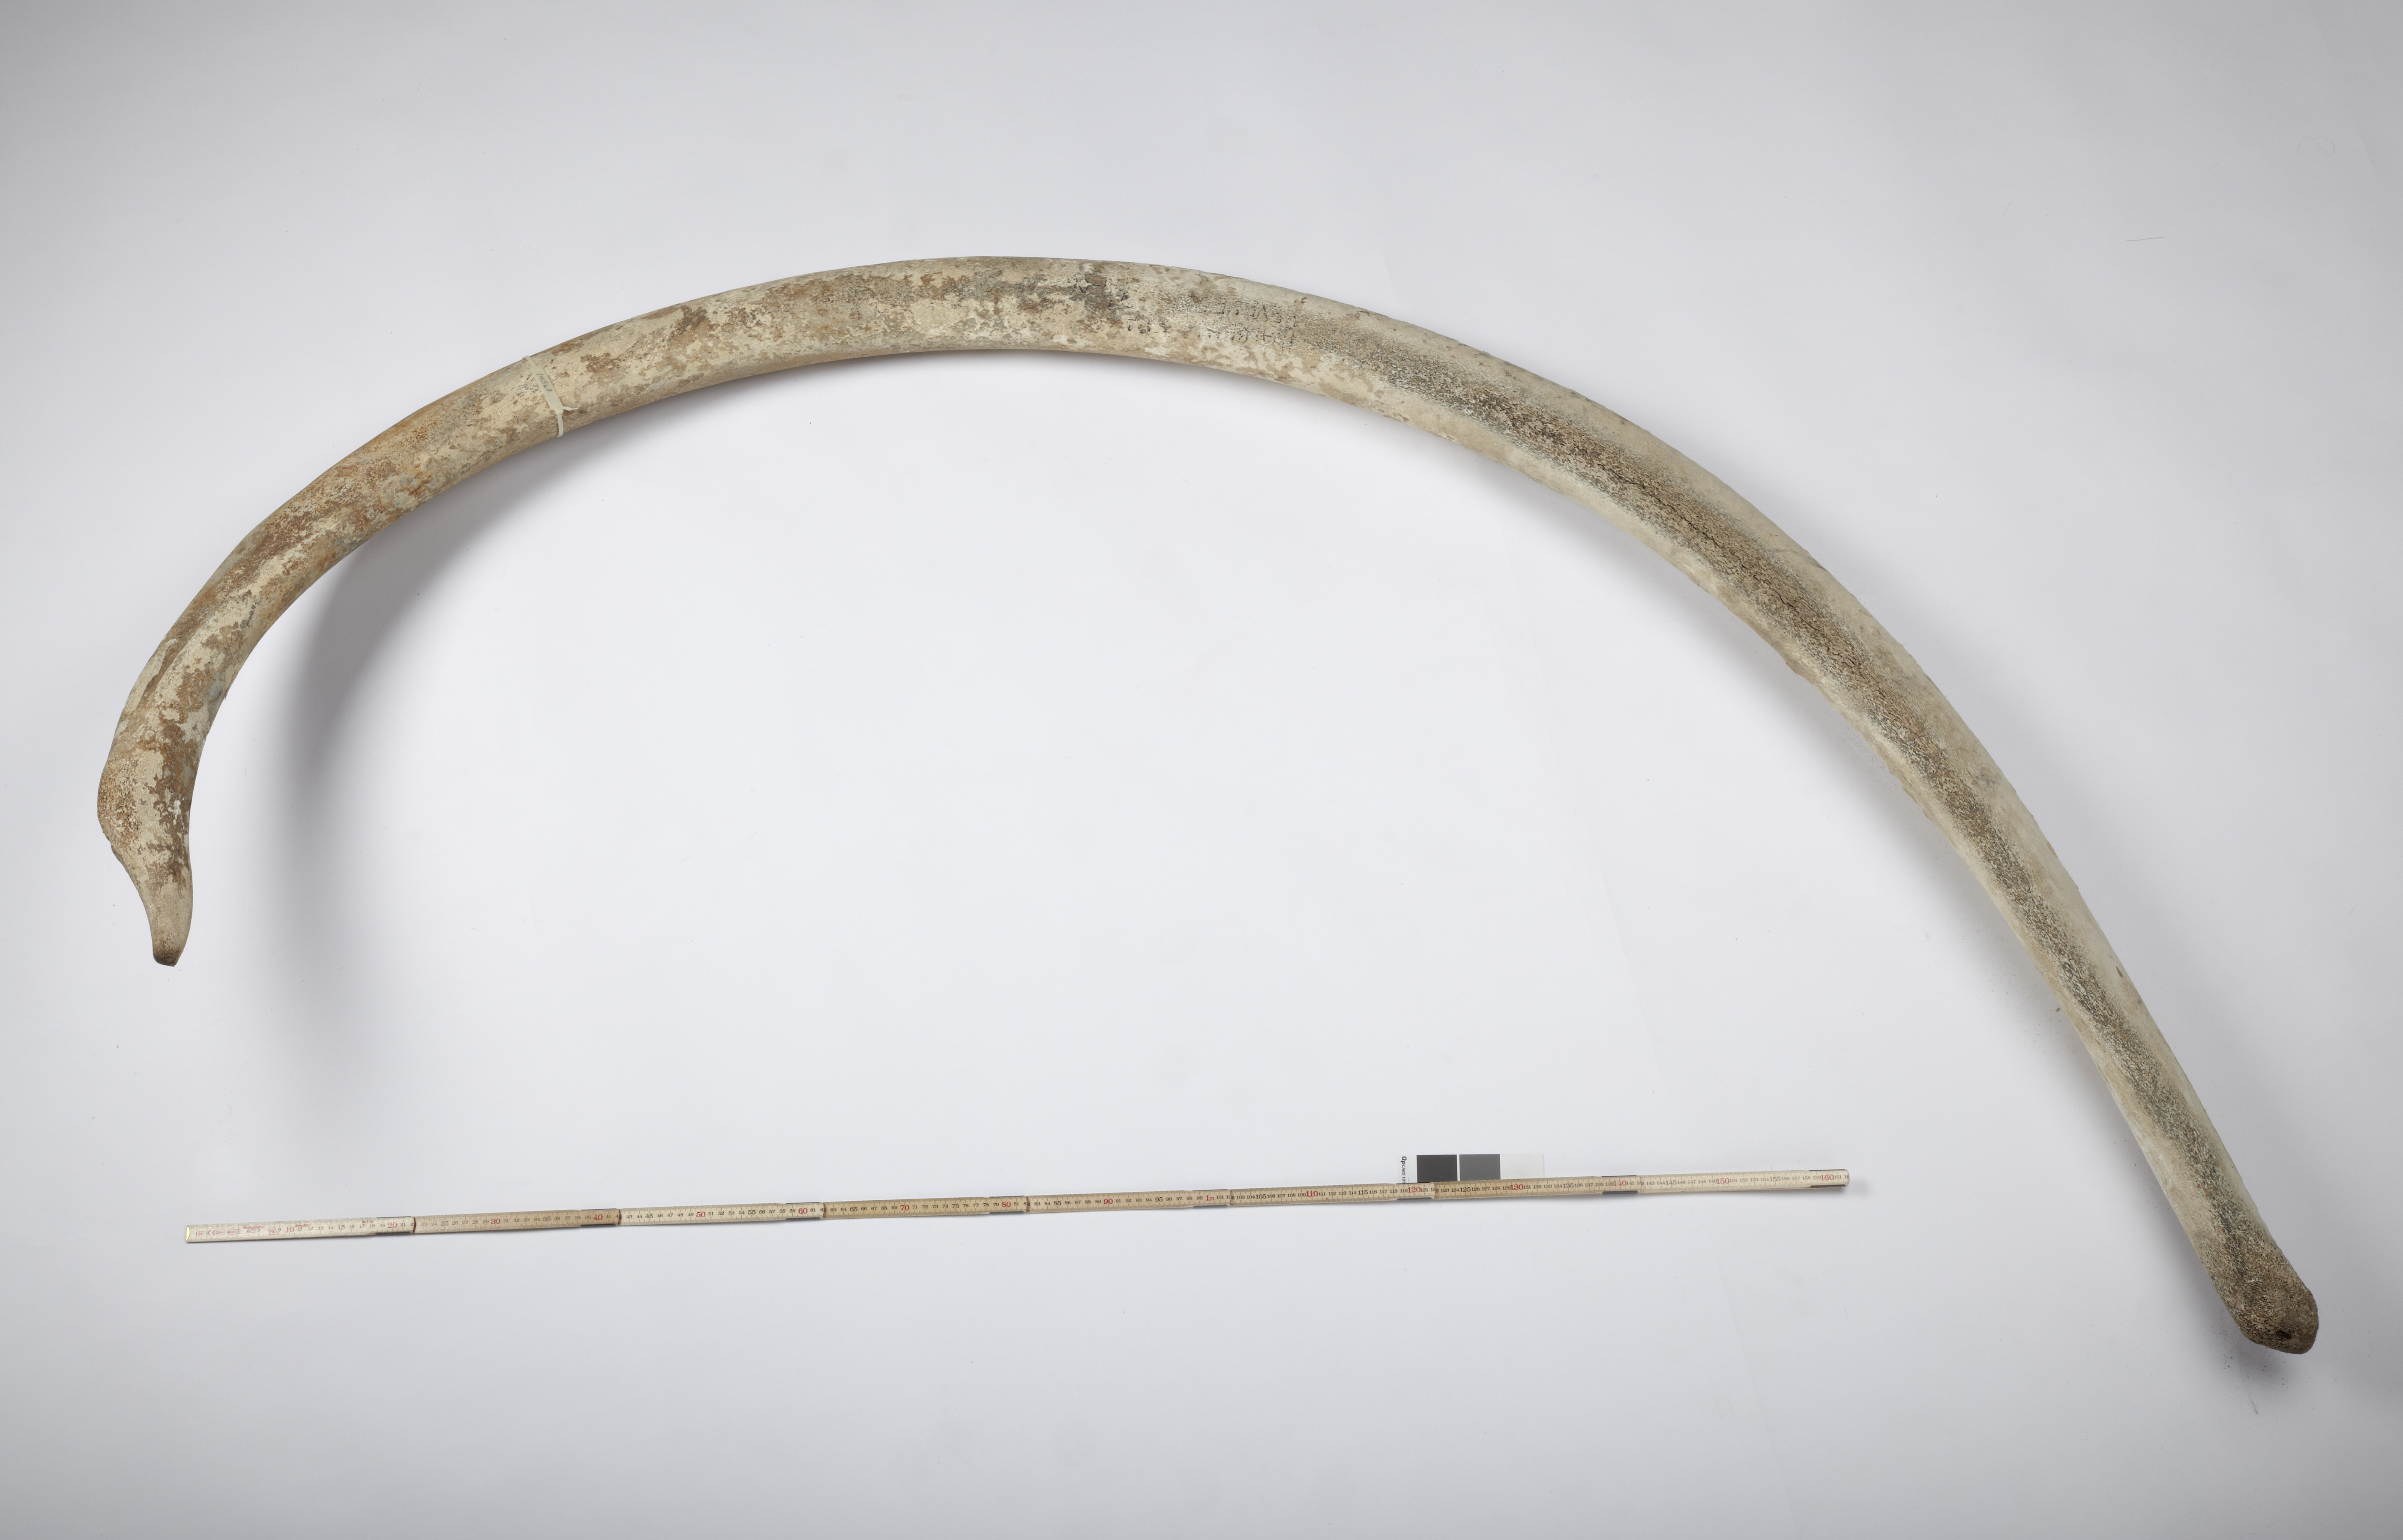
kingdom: Animalia
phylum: Chordata
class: Mammalia
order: Cetacea
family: Balaenidae
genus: Balaena
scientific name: Balaena mysticetus
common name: Bowhead whale
